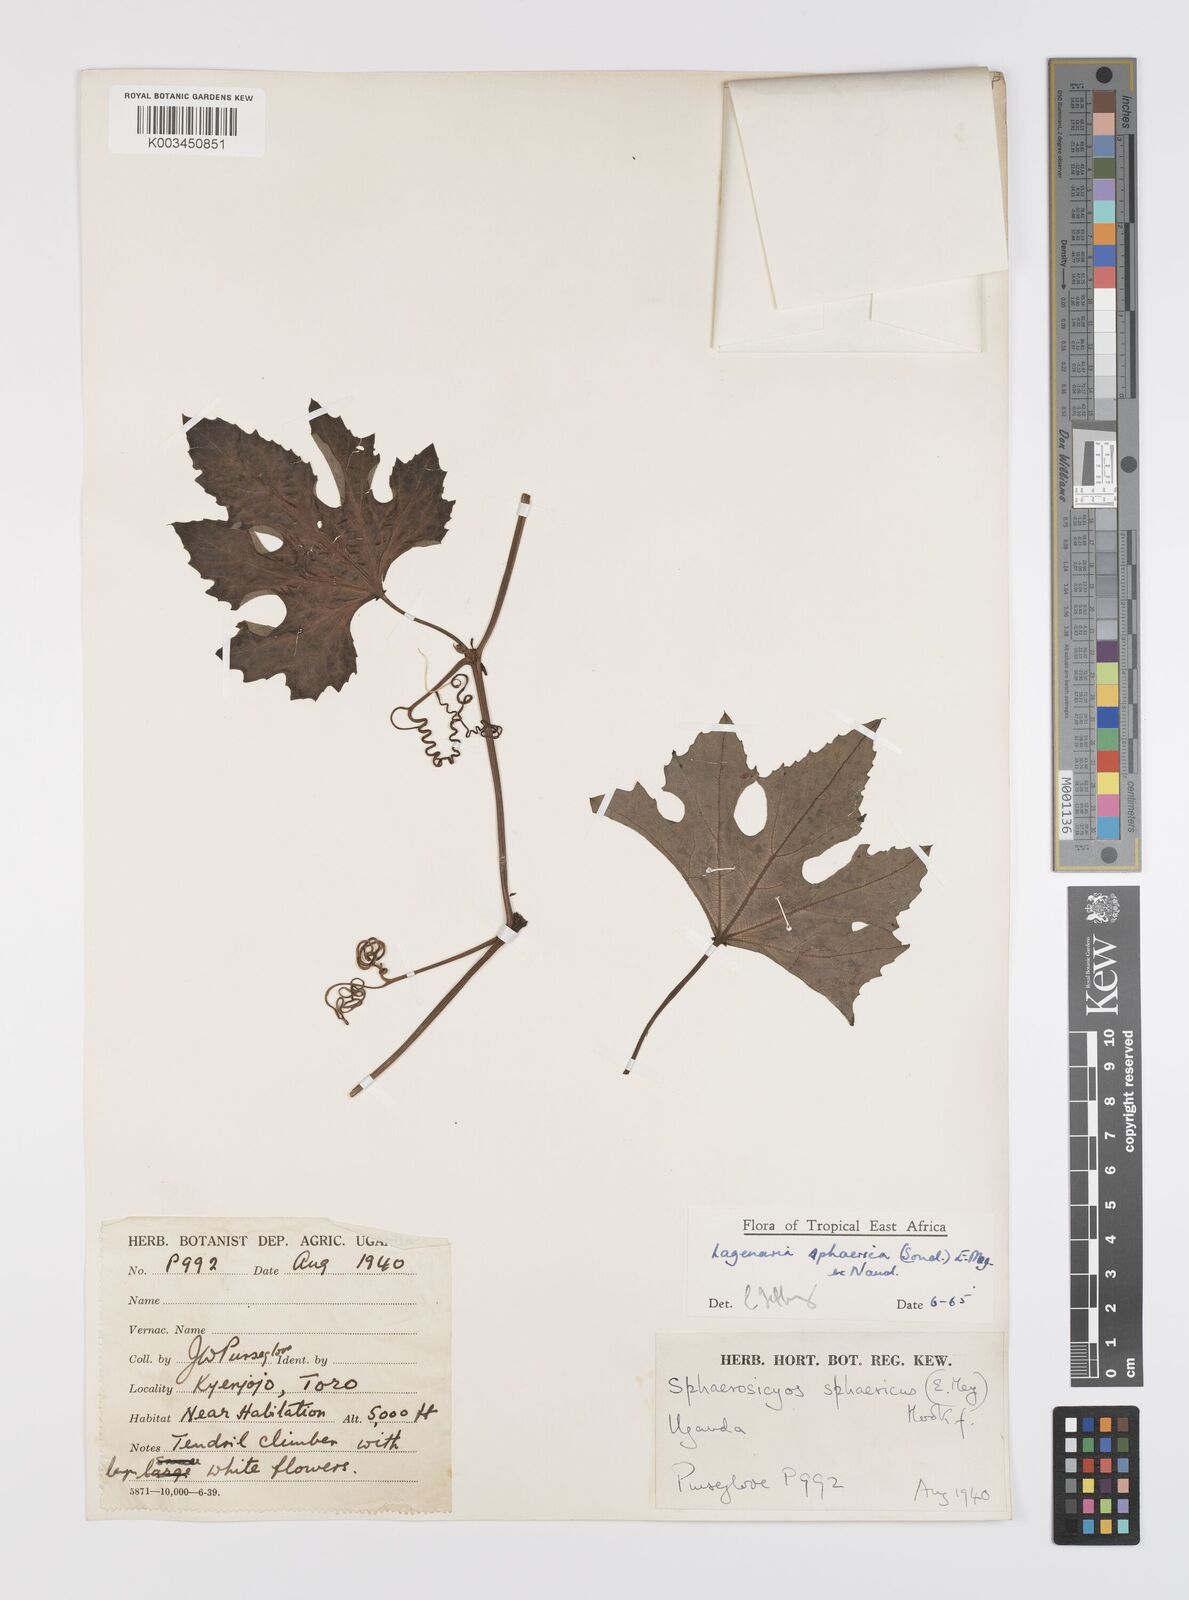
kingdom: Plantae
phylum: Tracheophyta
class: Magnoliopsida
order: Cucurbitales
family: Cucurbitaceae
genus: Lagenaria
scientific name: Lagenaria sphaerica
